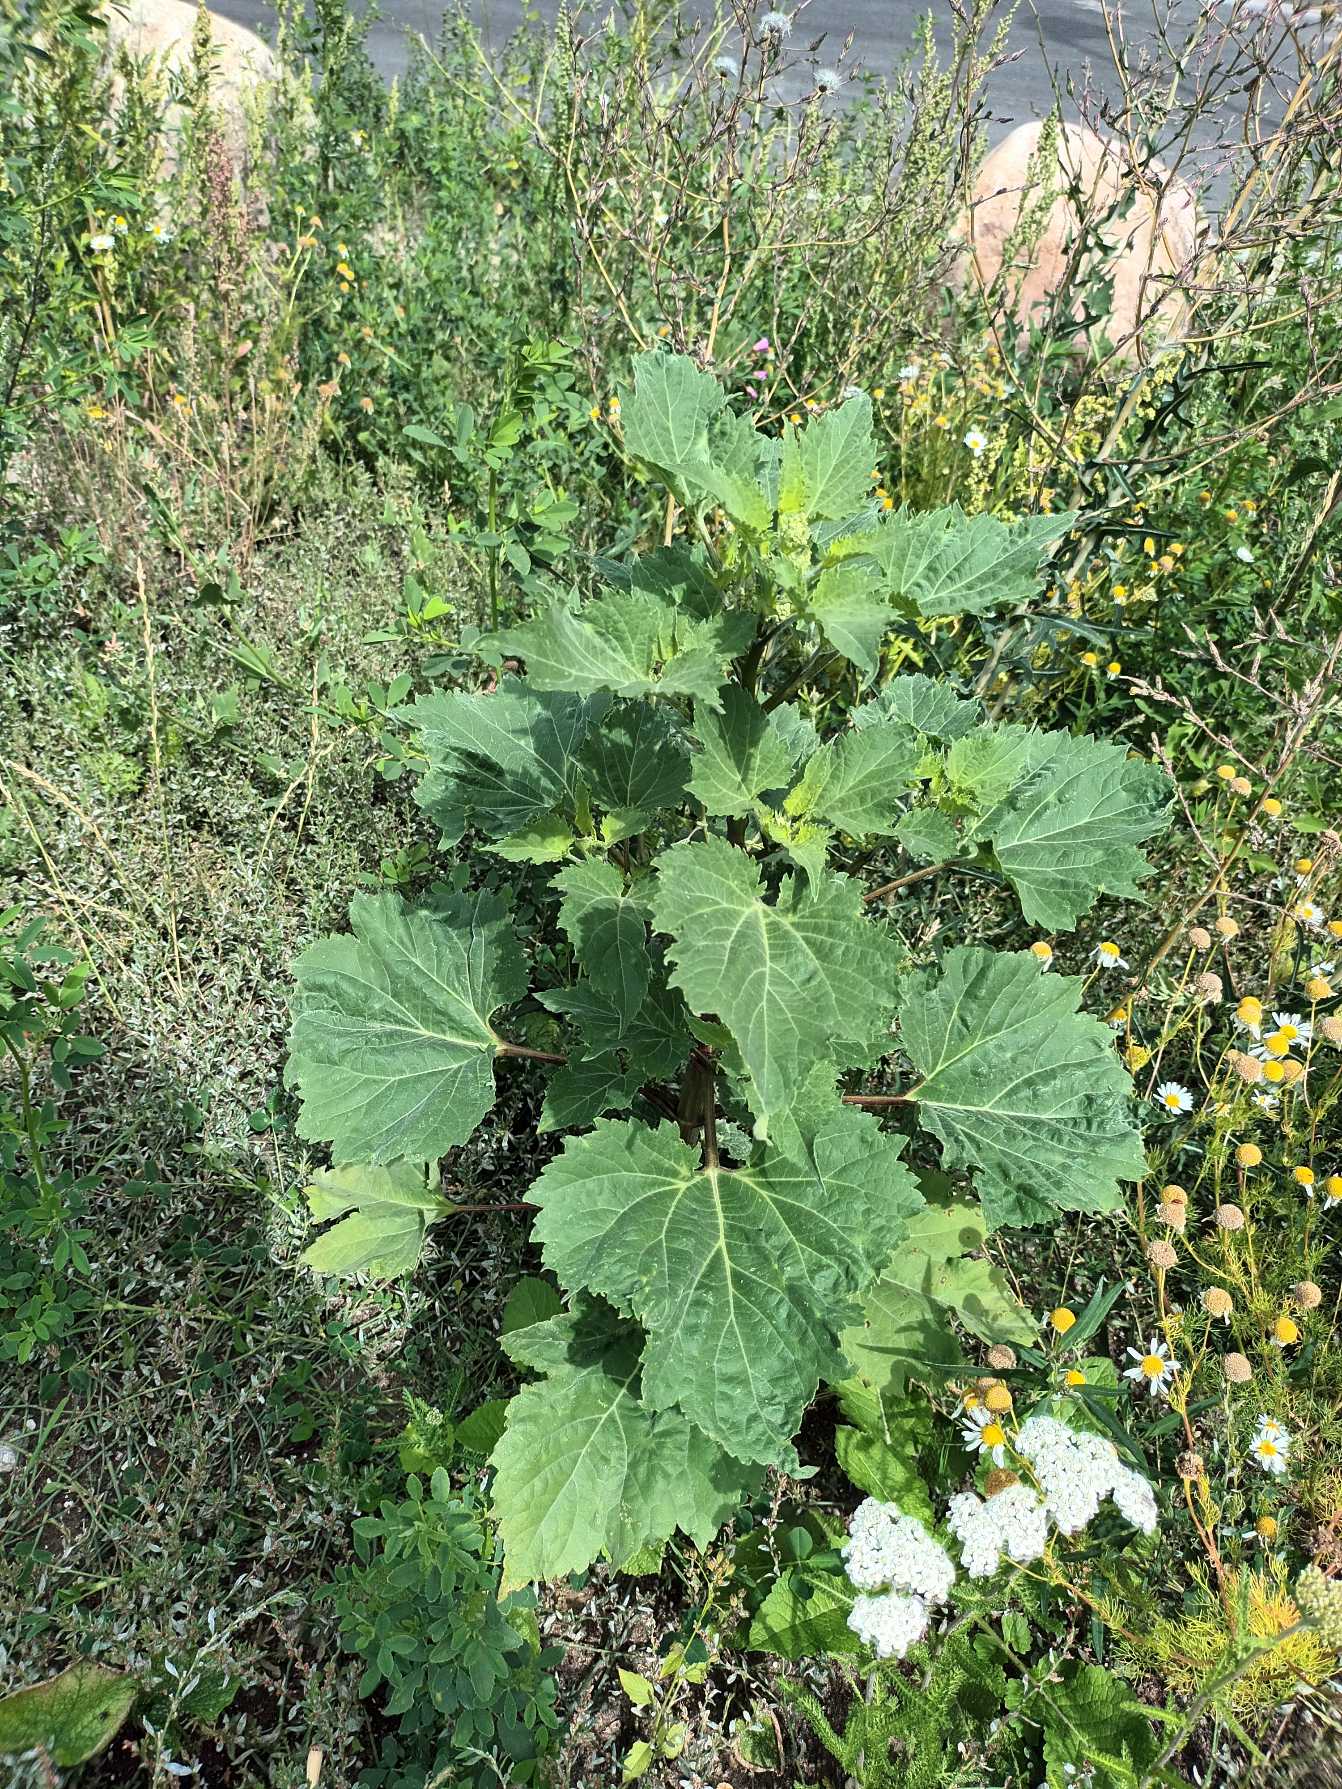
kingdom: Plantae
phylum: Tracheophyta
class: Magnoliopsida
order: Asterales
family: Asteraceae
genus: Cyclachaena
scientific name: Cyclachaena xanthiifolia
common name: Klaseurt
